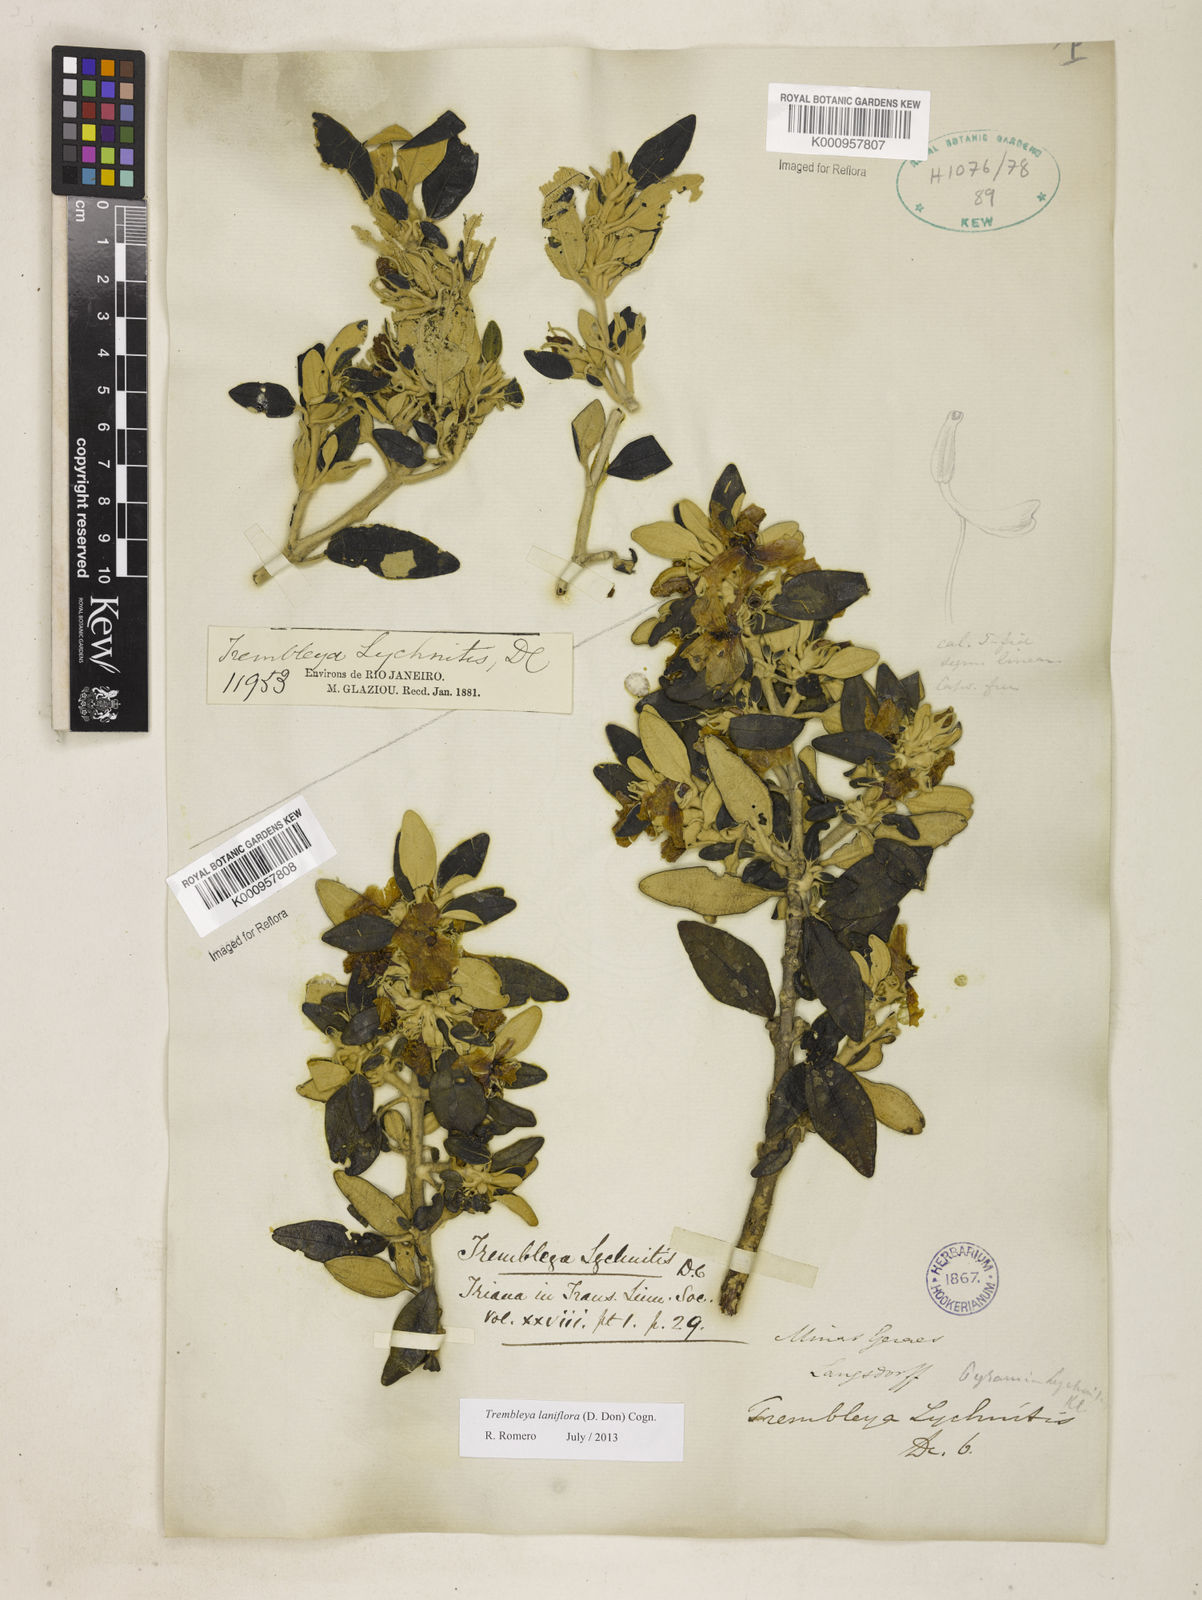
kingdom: Plantae
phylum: Tracheophyta
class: Magnoliopsida
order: Myrtales
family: Melastomataceae
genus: Microlicia
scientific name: Microlicia laniflora
